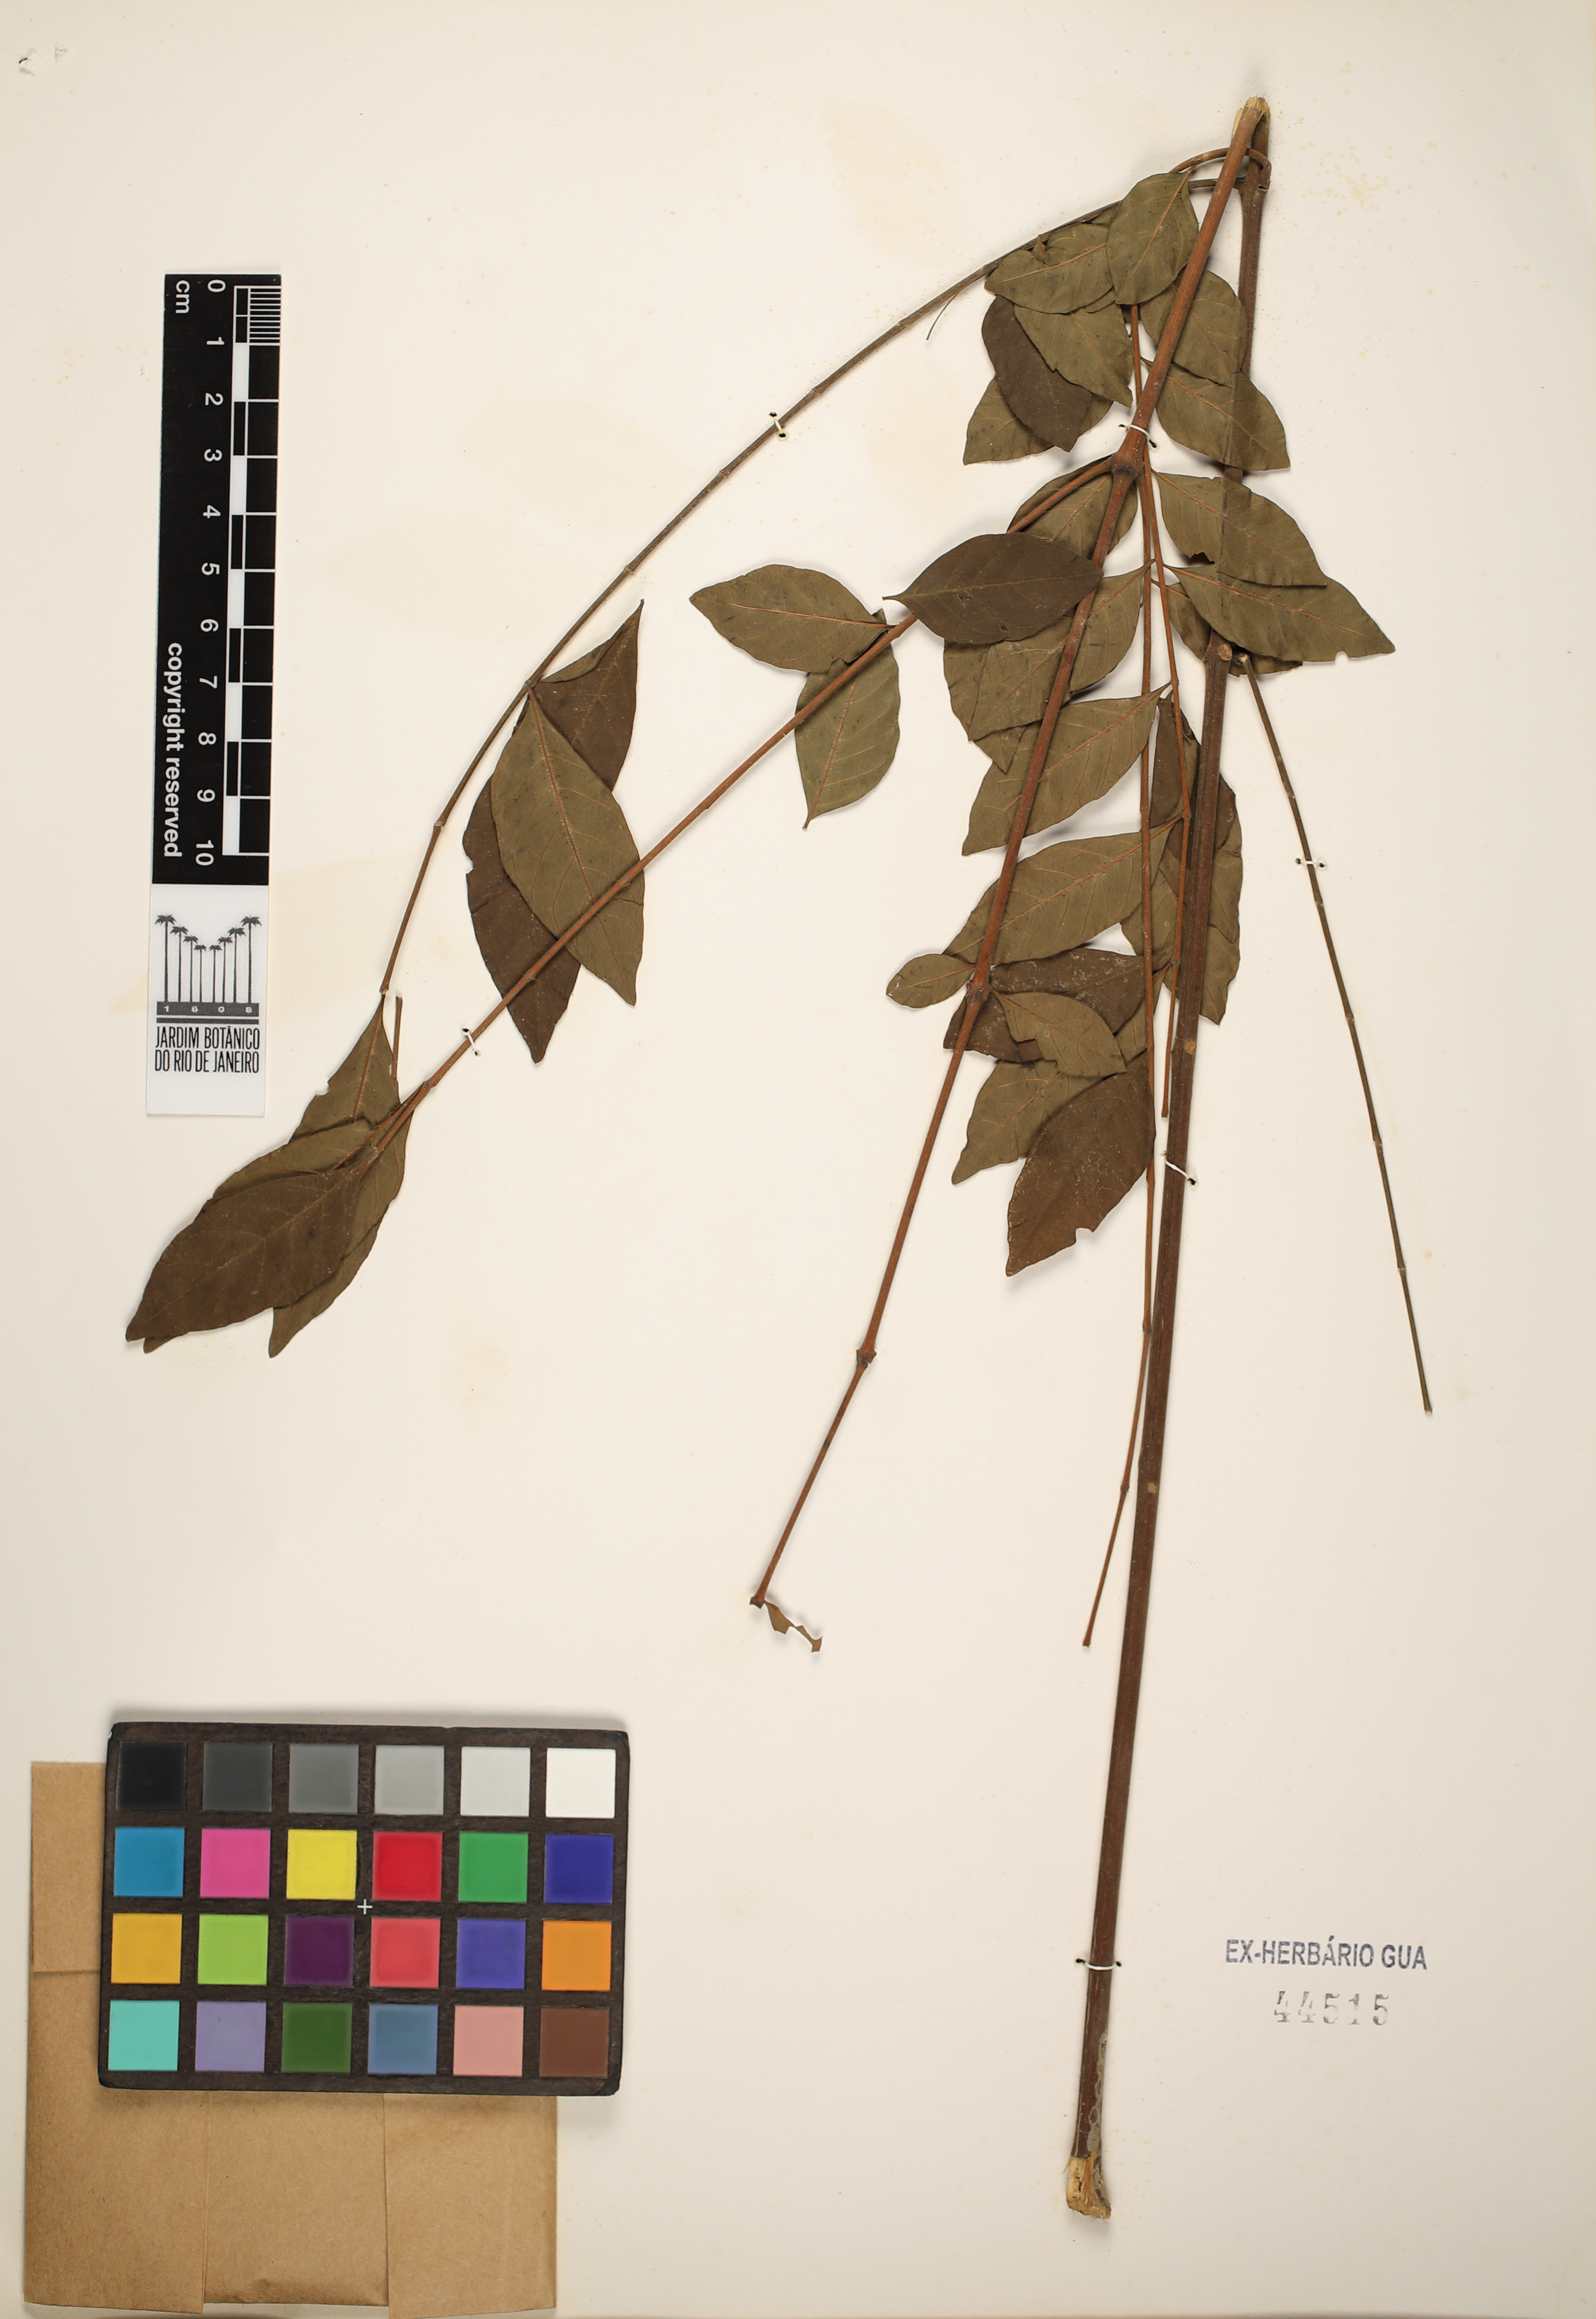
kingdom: Plantae
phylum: Tracheophyta
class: Magnoliopsida
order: Lamiales
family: Bignoniaceae
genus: Jacaranda
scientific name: Jacaranda
